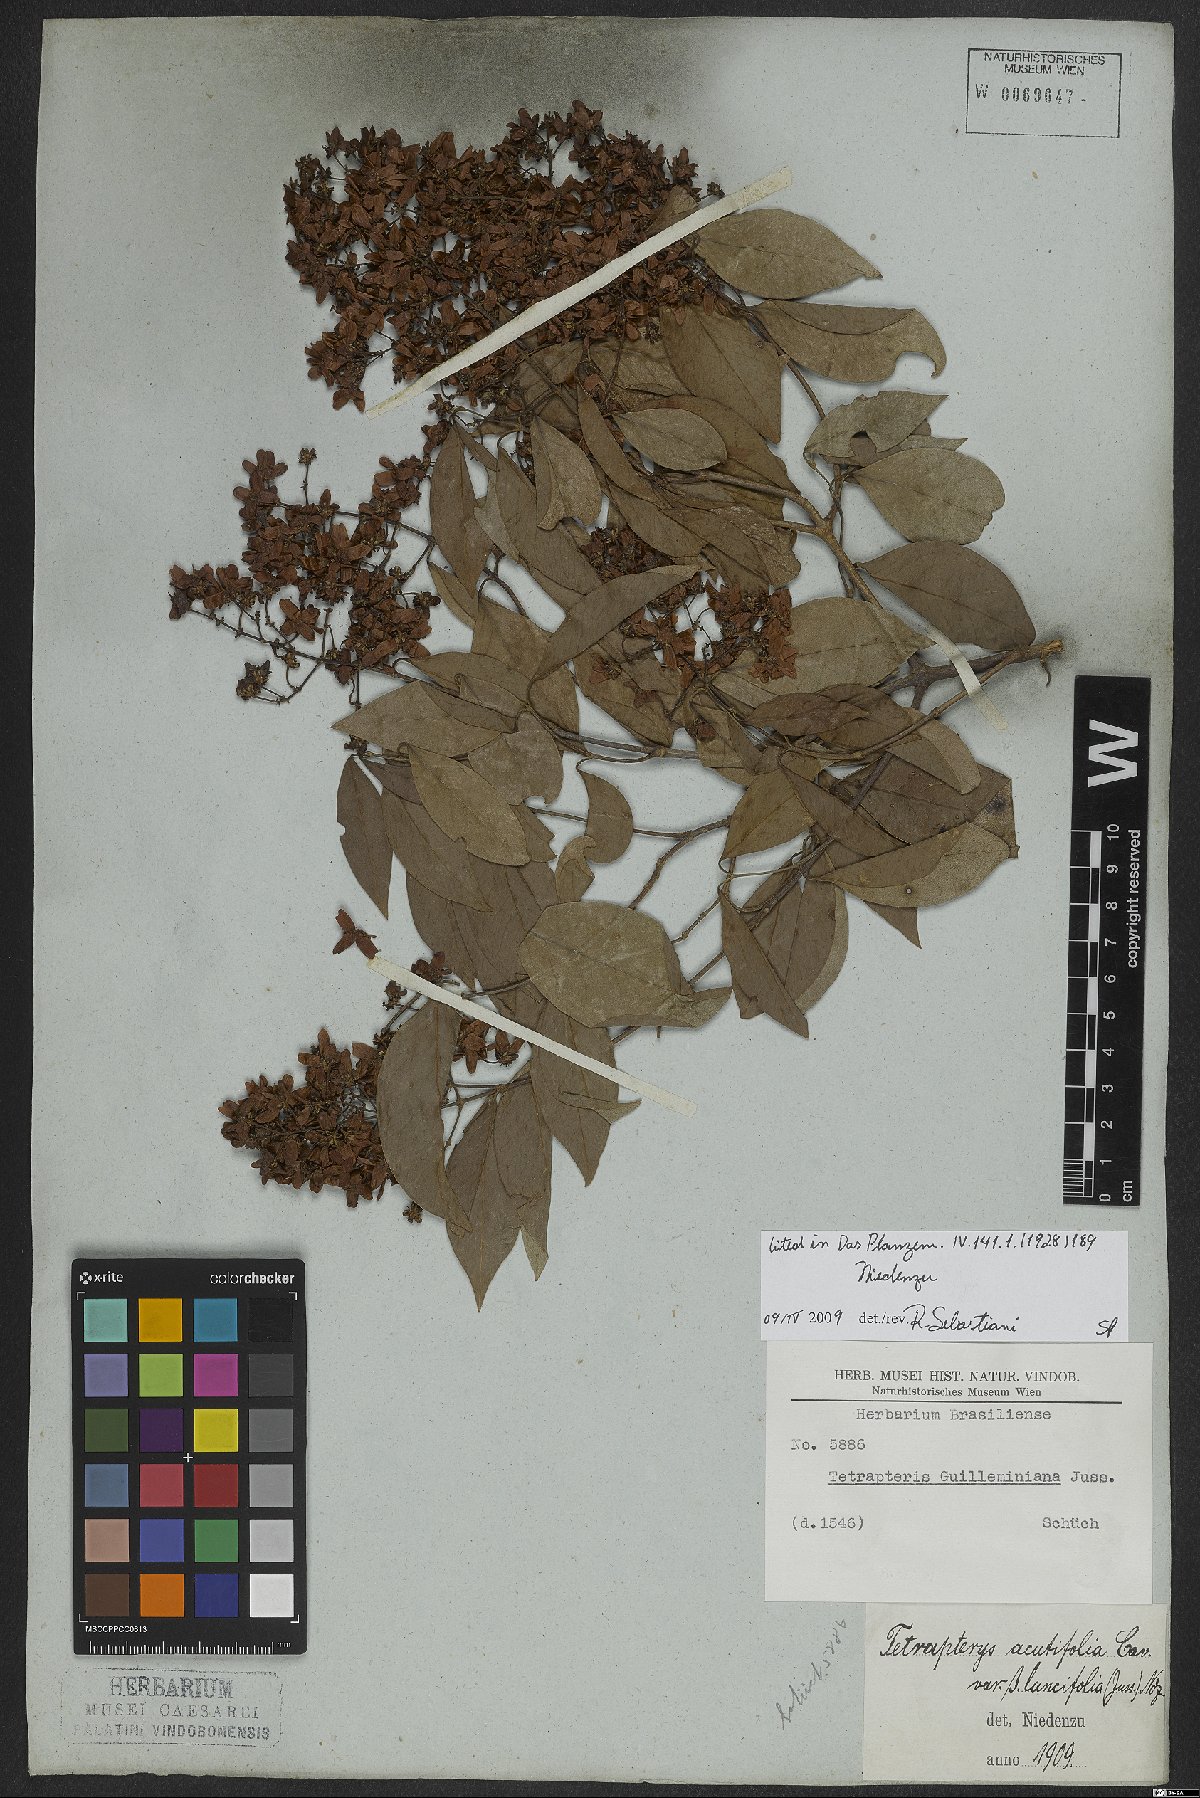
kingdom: Plantae
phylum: Tracheophyta
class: Magnoliopsida
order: Malpighiales
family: Malpighiaceae
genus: Niedenzuella
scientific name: Niedenzuella acutifolia
